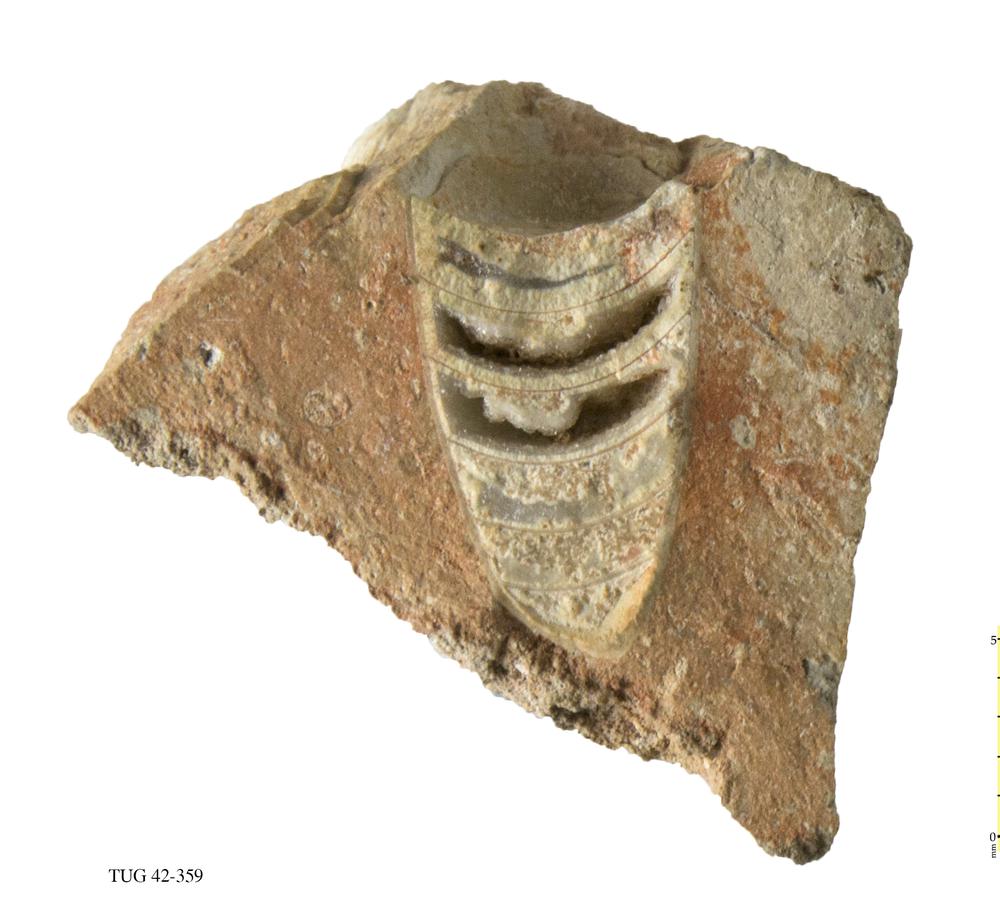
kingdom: Animalia
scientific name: Animalia
